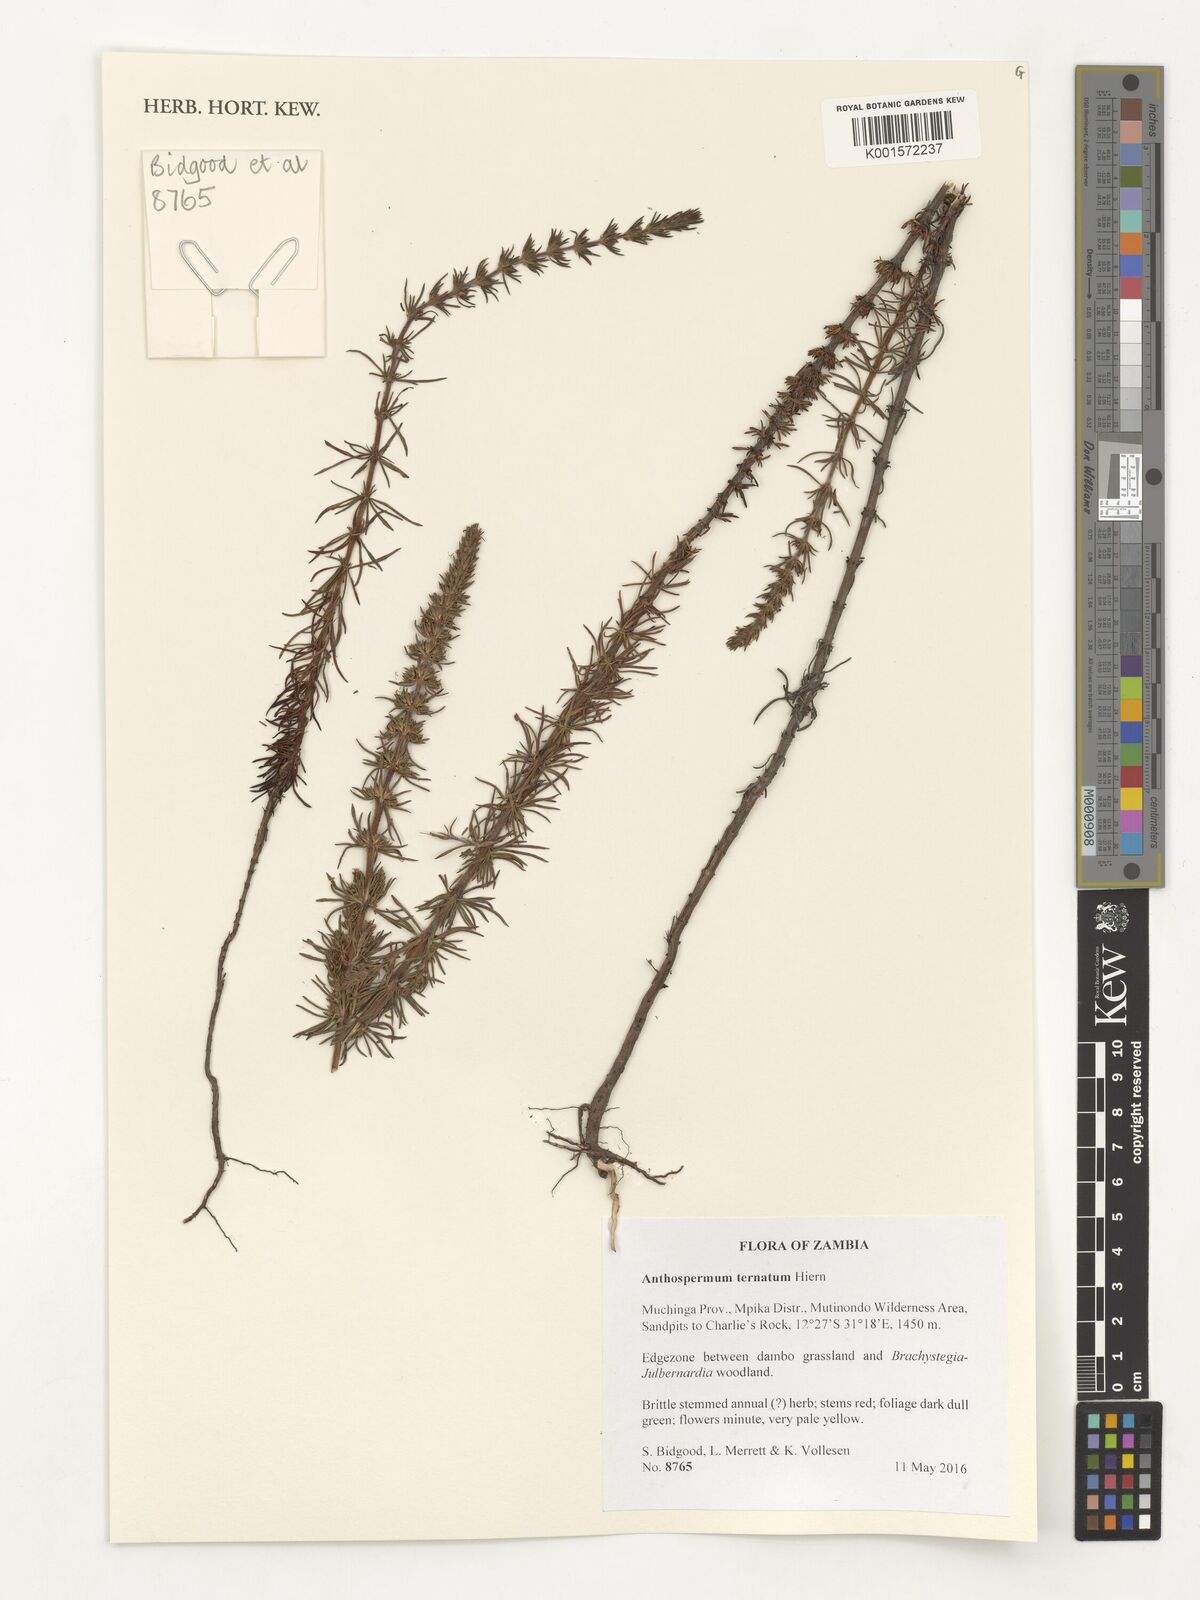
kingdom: Plantae
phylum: Tracheophyta
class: Magnoliopsida
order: Gentianales
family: Rubiaceae
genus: Anthospermum
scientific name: Anthospermum ternatum
